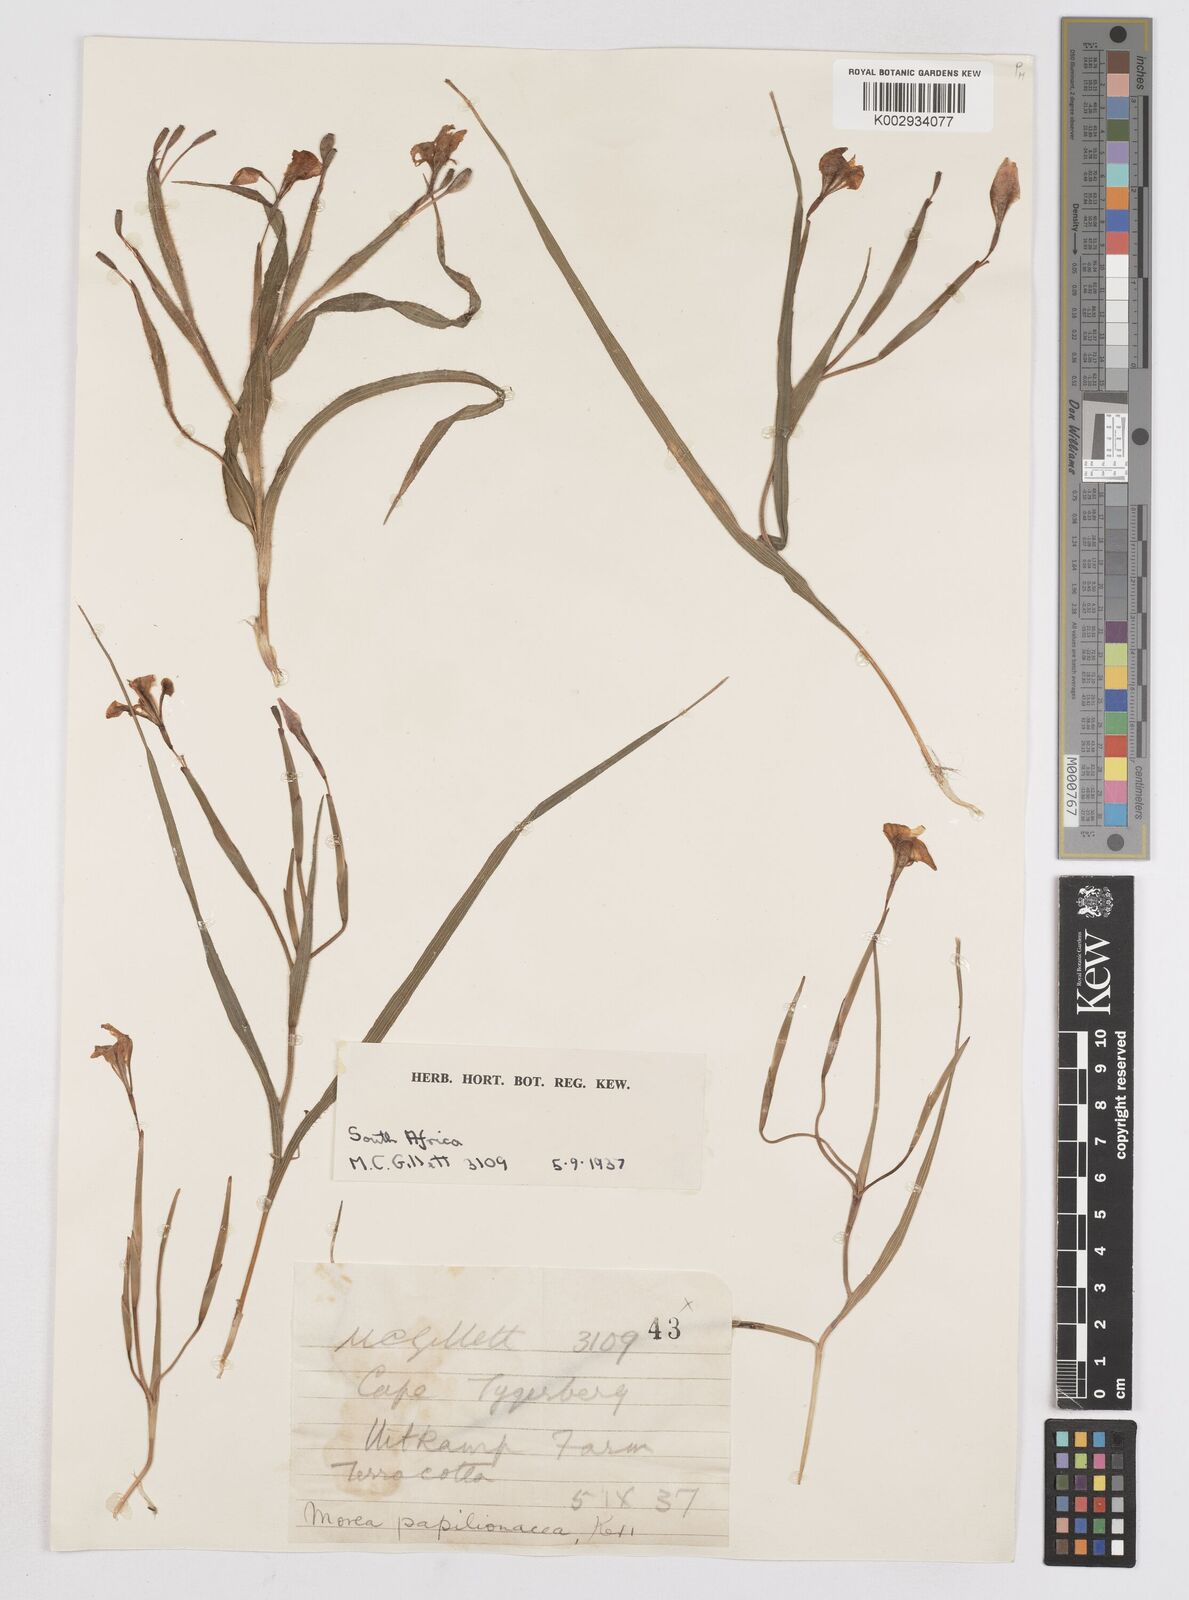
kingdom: Plantae
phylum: Tracheophyta
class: Liliopsida
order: Asparagales
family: Iridaceae
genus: Moraea
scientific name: Moraea papilionacea
